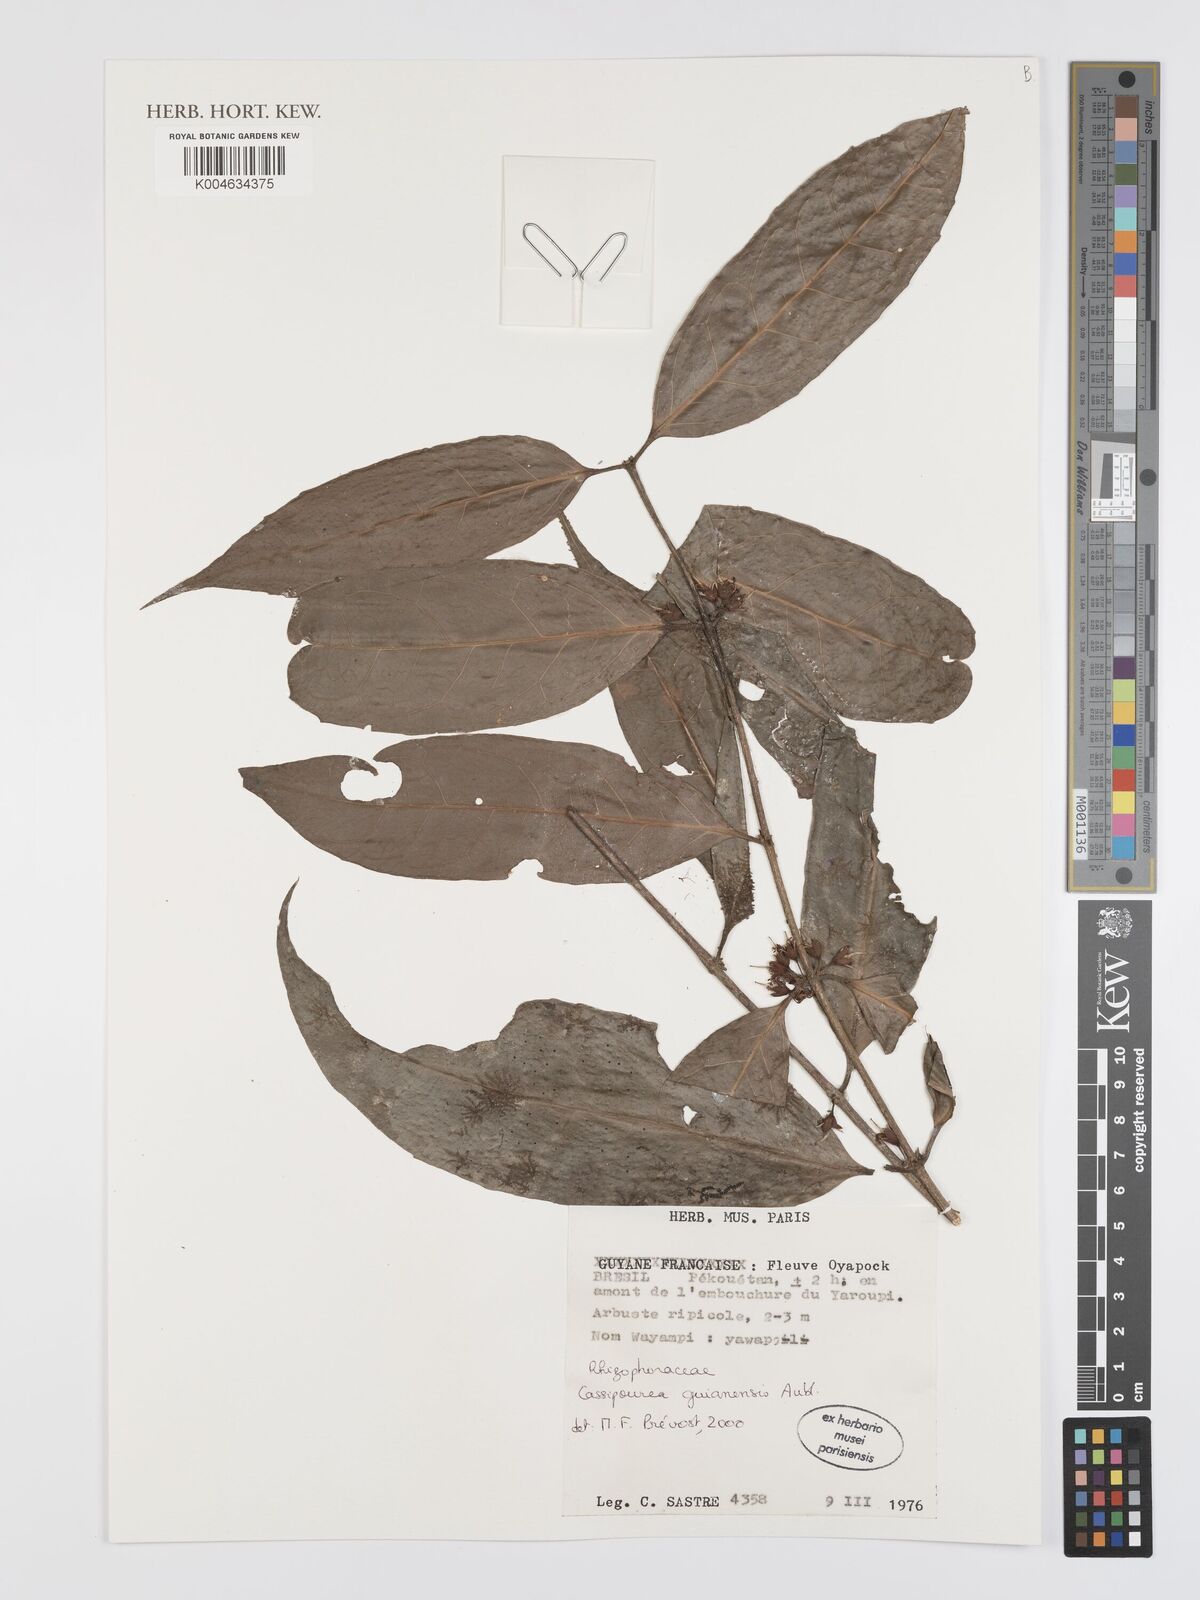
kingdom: Plantae
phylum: Tracheophyta
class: Magnoliopsida
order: Malpighiales
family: Rhizophoraceae
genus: Cassipourea
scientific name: Cassipourea guianensis
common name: Bastard waterwood
